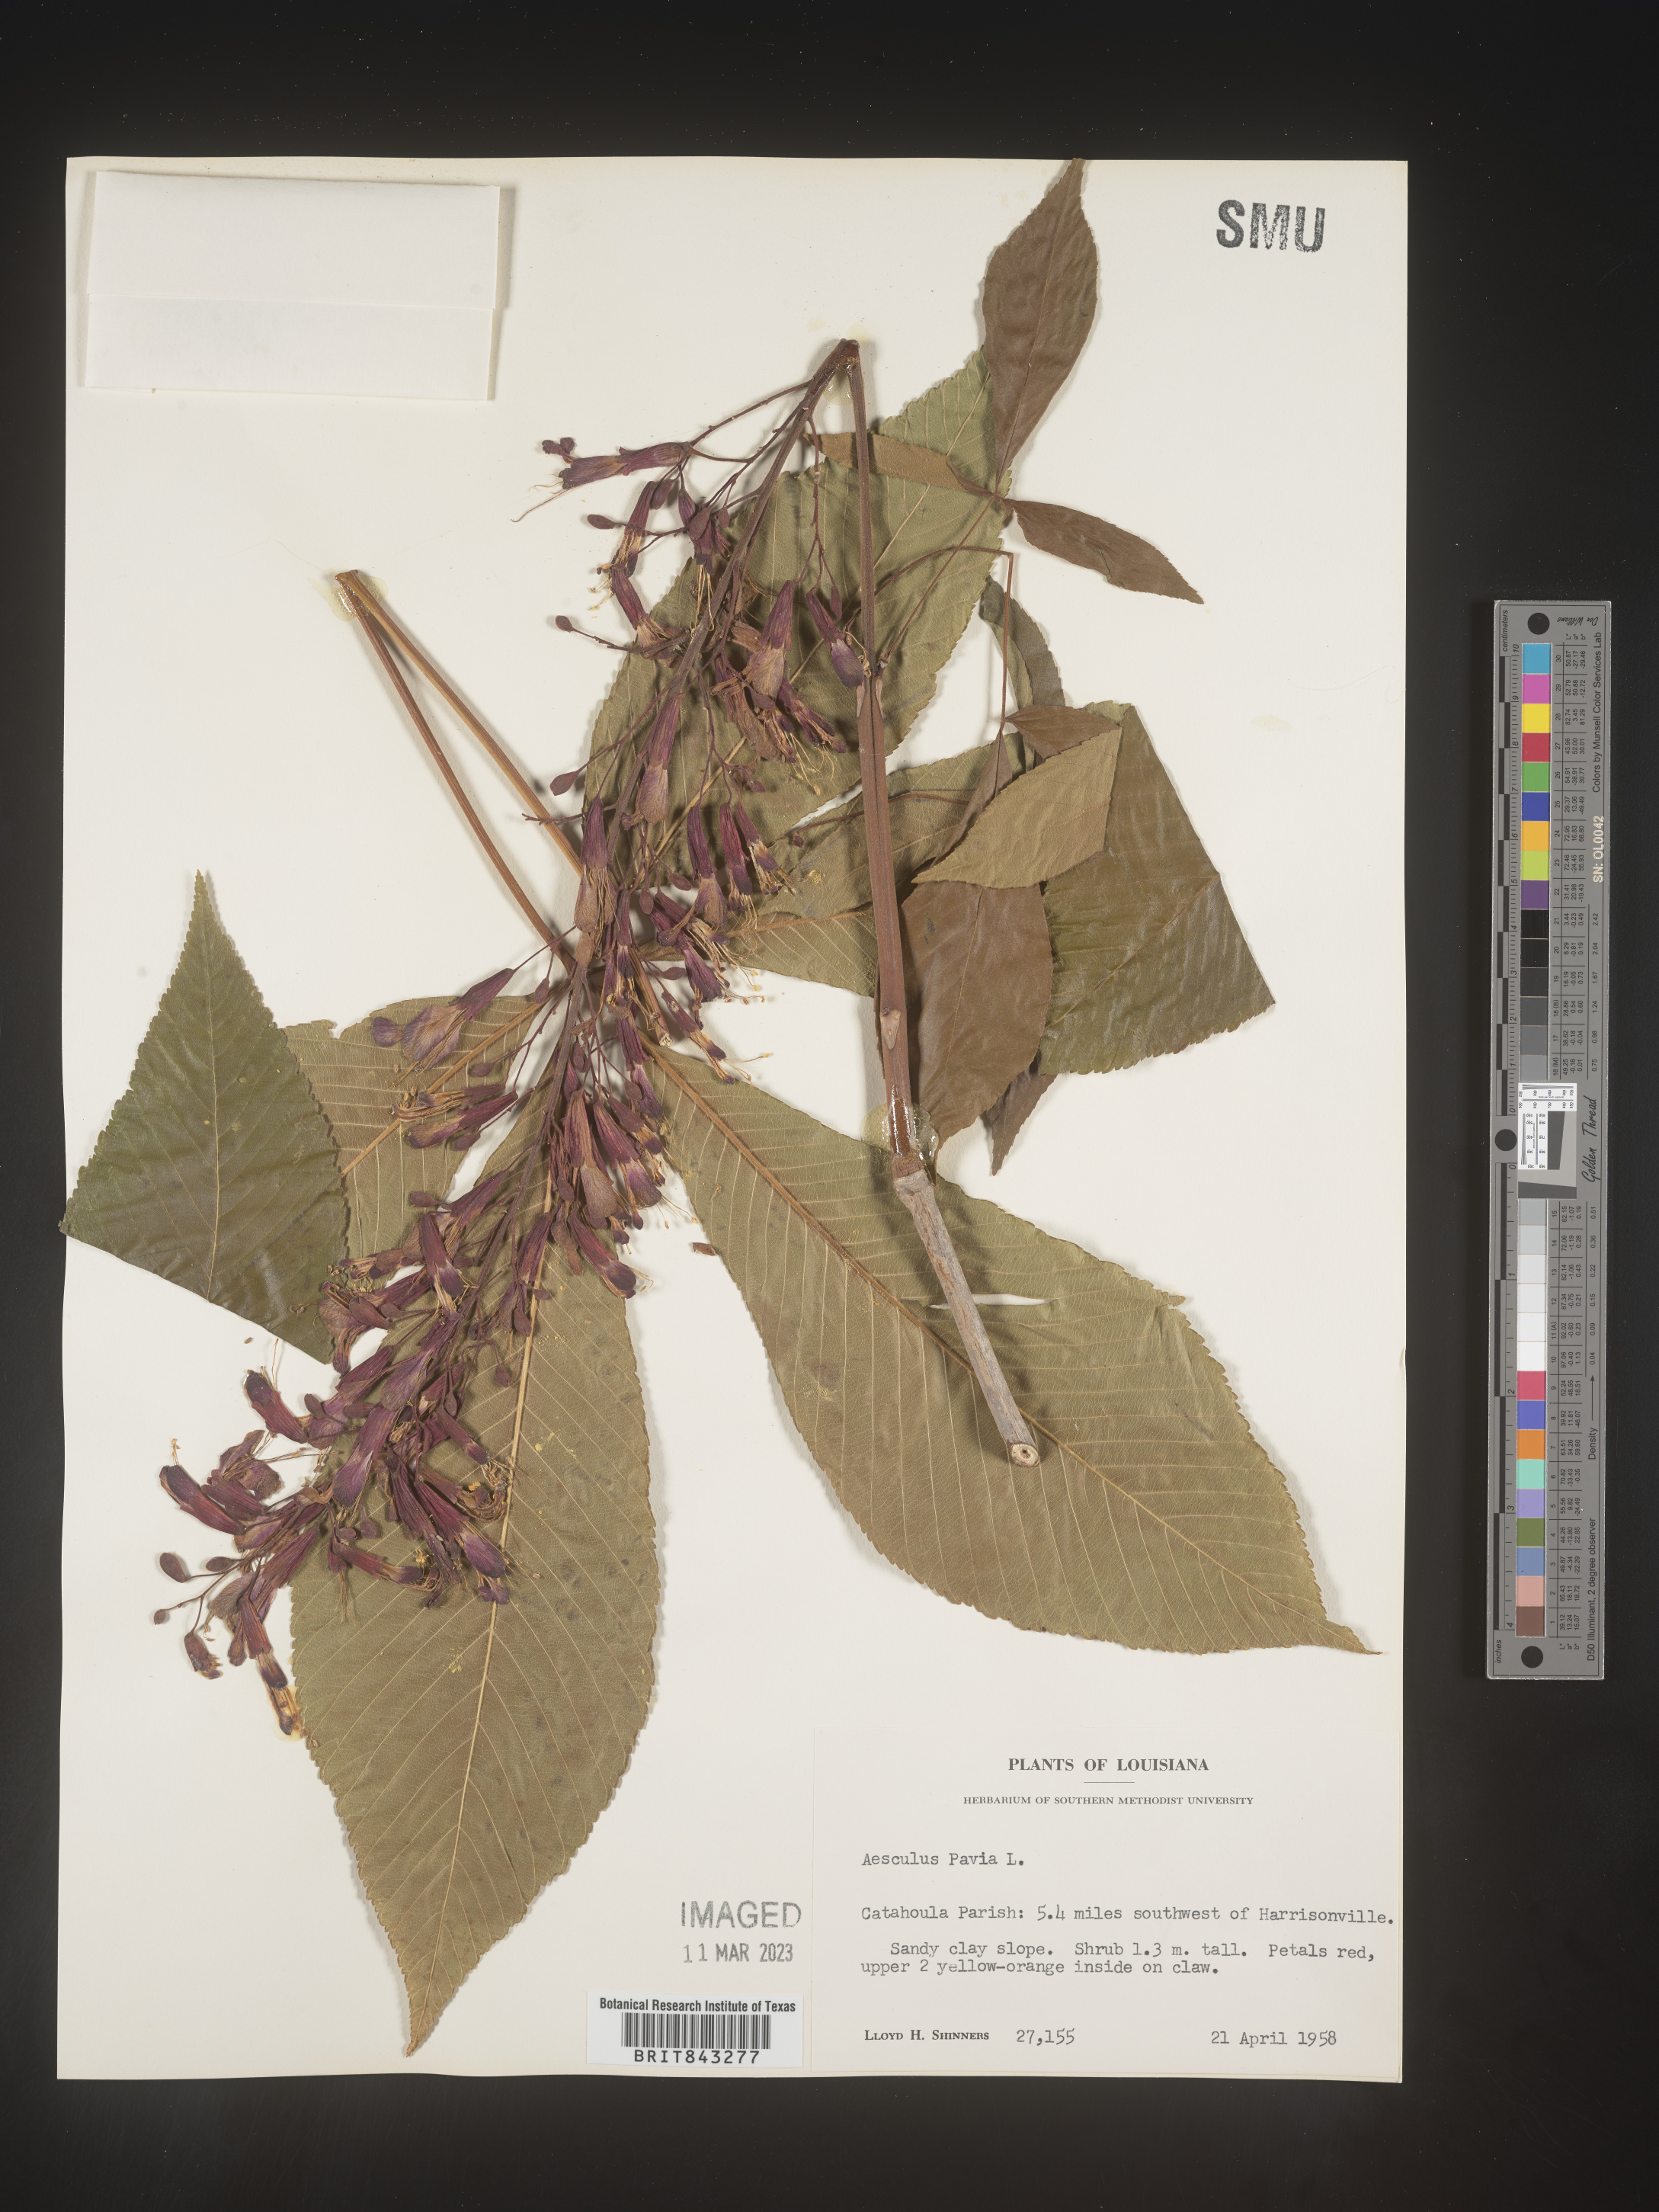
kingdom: Plantae
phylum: Tracheophyta
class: Magnoliopsida
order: Sapindales
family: Sapindaceae
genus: Aesculus
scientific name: Aesculus pavia
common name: Red buckeye
